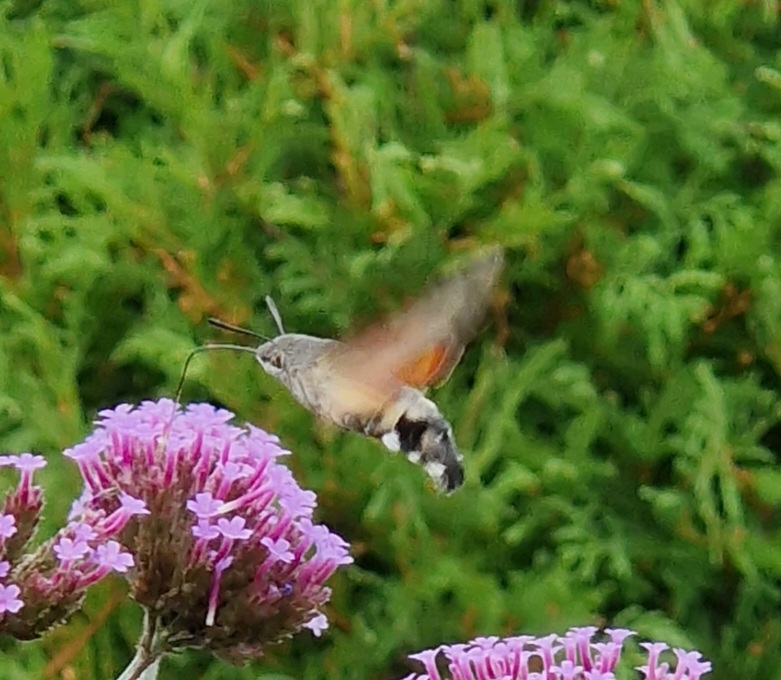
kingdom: Animalia
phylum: Arthropoda
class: Insecta
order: Lepidoptera
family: Sphingidae
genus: Macroglossum
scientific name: Macroglossum stellatarum
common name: Duehale
